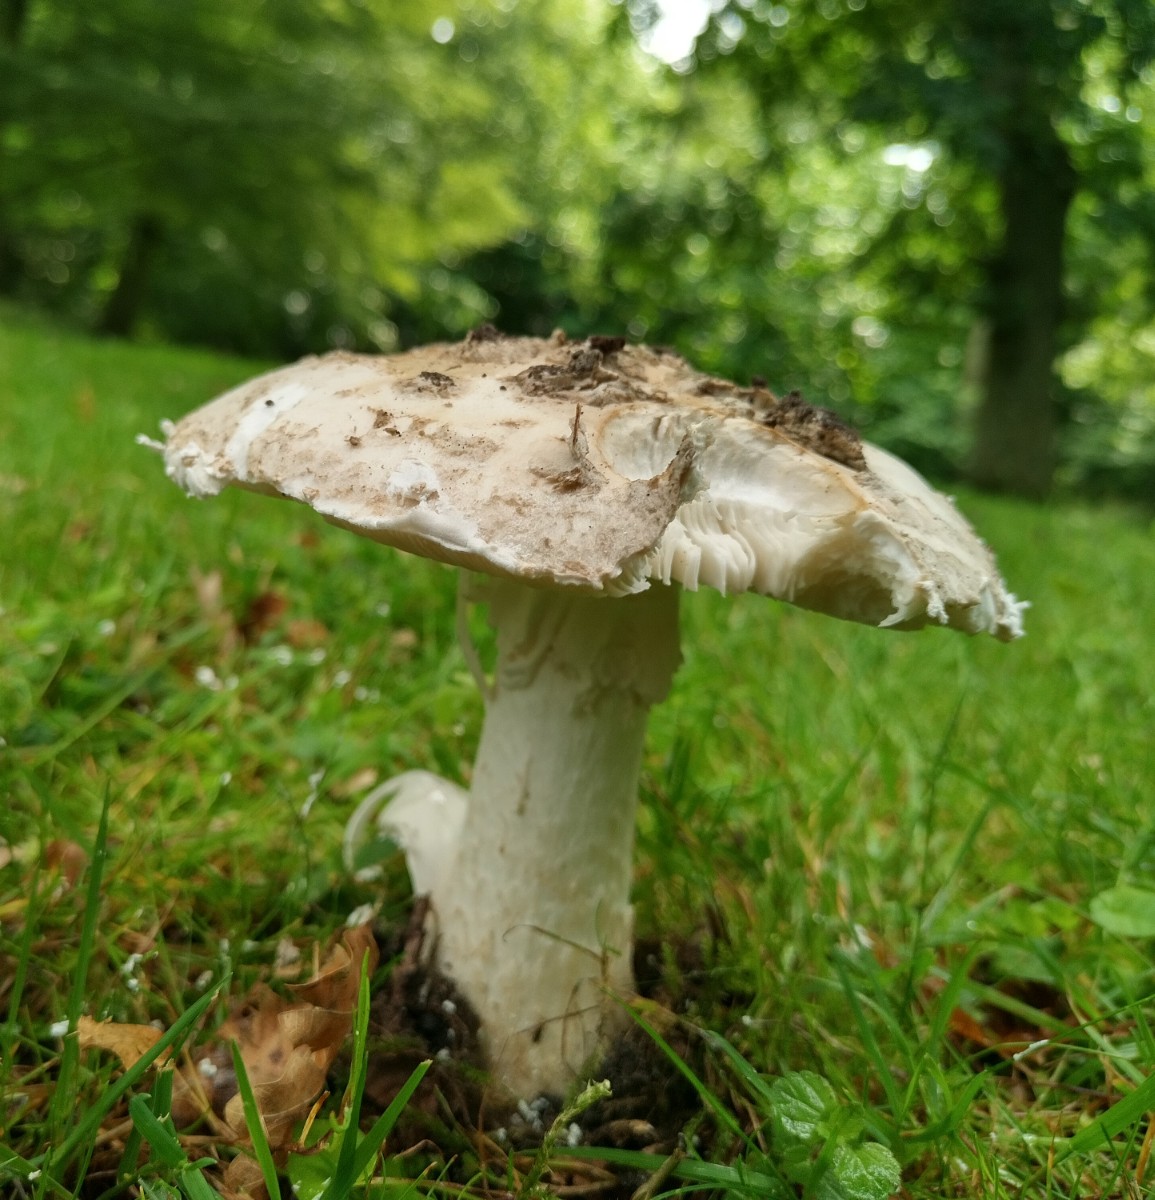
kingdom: Fungi
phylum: Basidiomycota
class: Agaricomycetes
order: Agaricales
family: Amanitaceae
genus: Amanita
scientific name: Amanita
